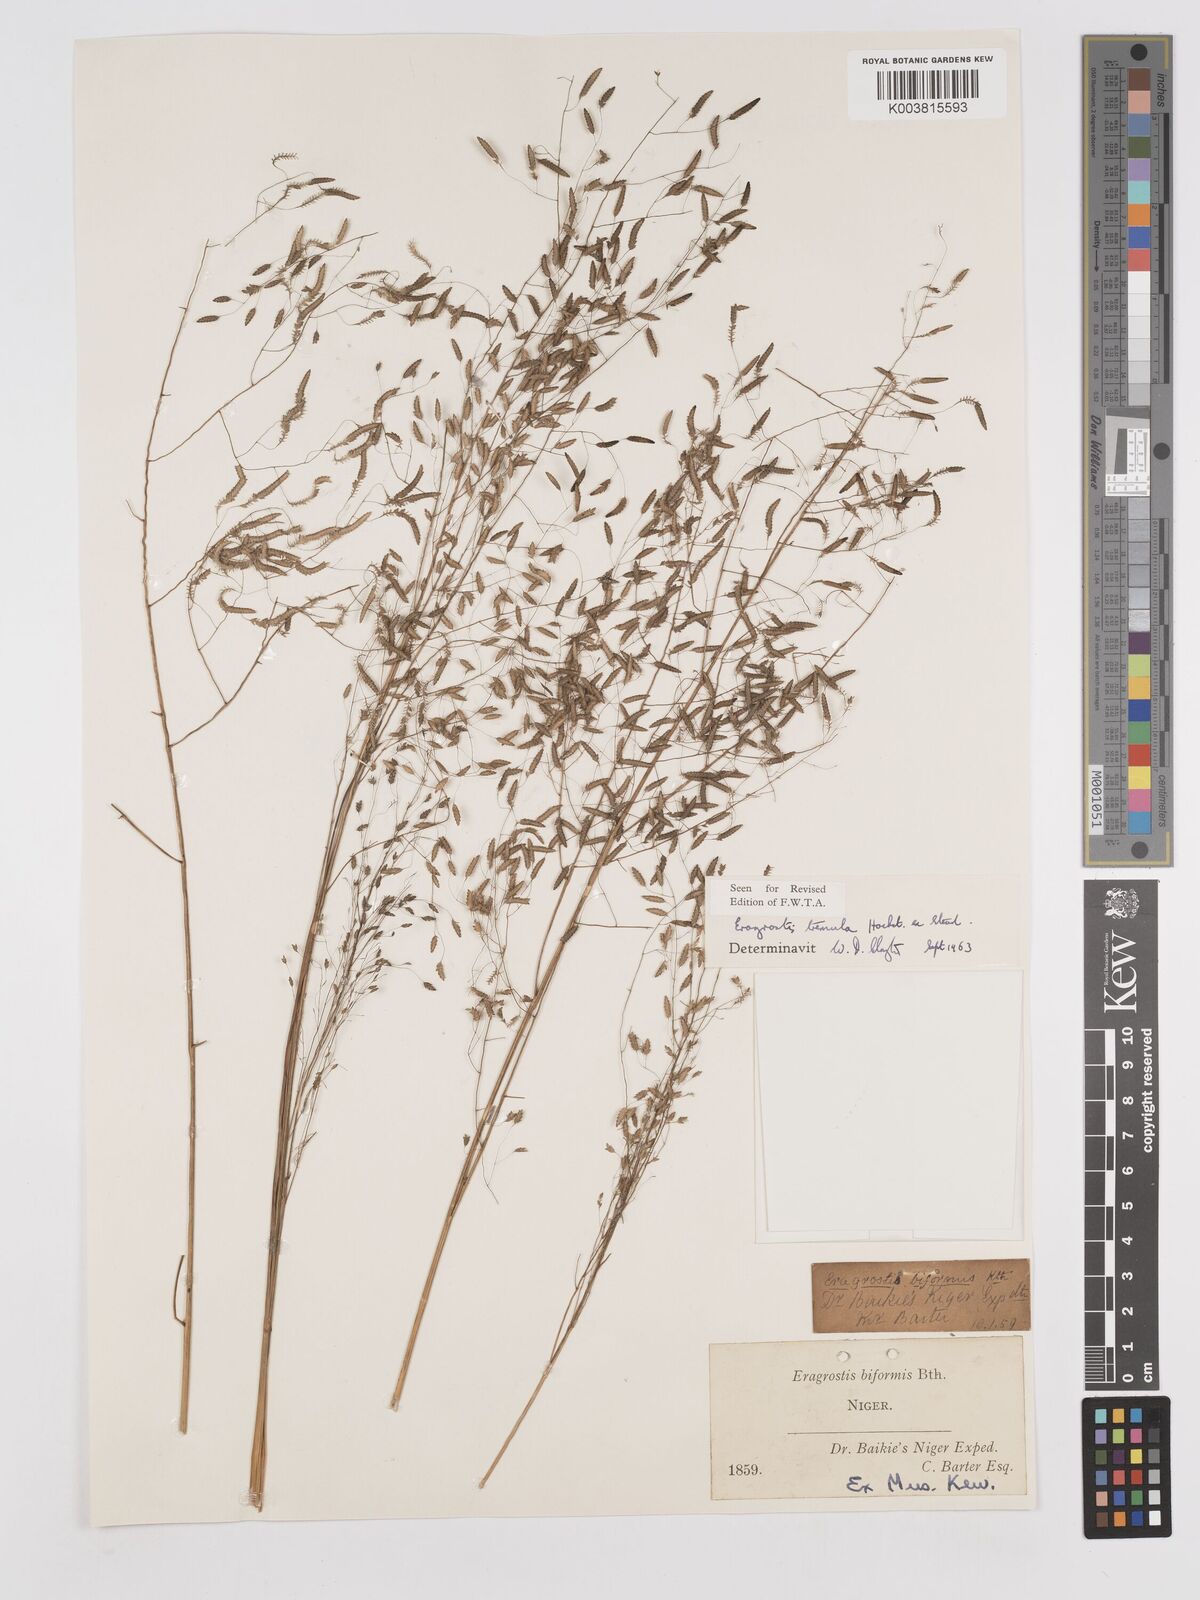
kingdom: Plantae
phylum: Tracheophyta
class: Liliopsida
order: Poales
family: Poaceae
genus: Eragrostis
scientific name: Eragrostis tremula
